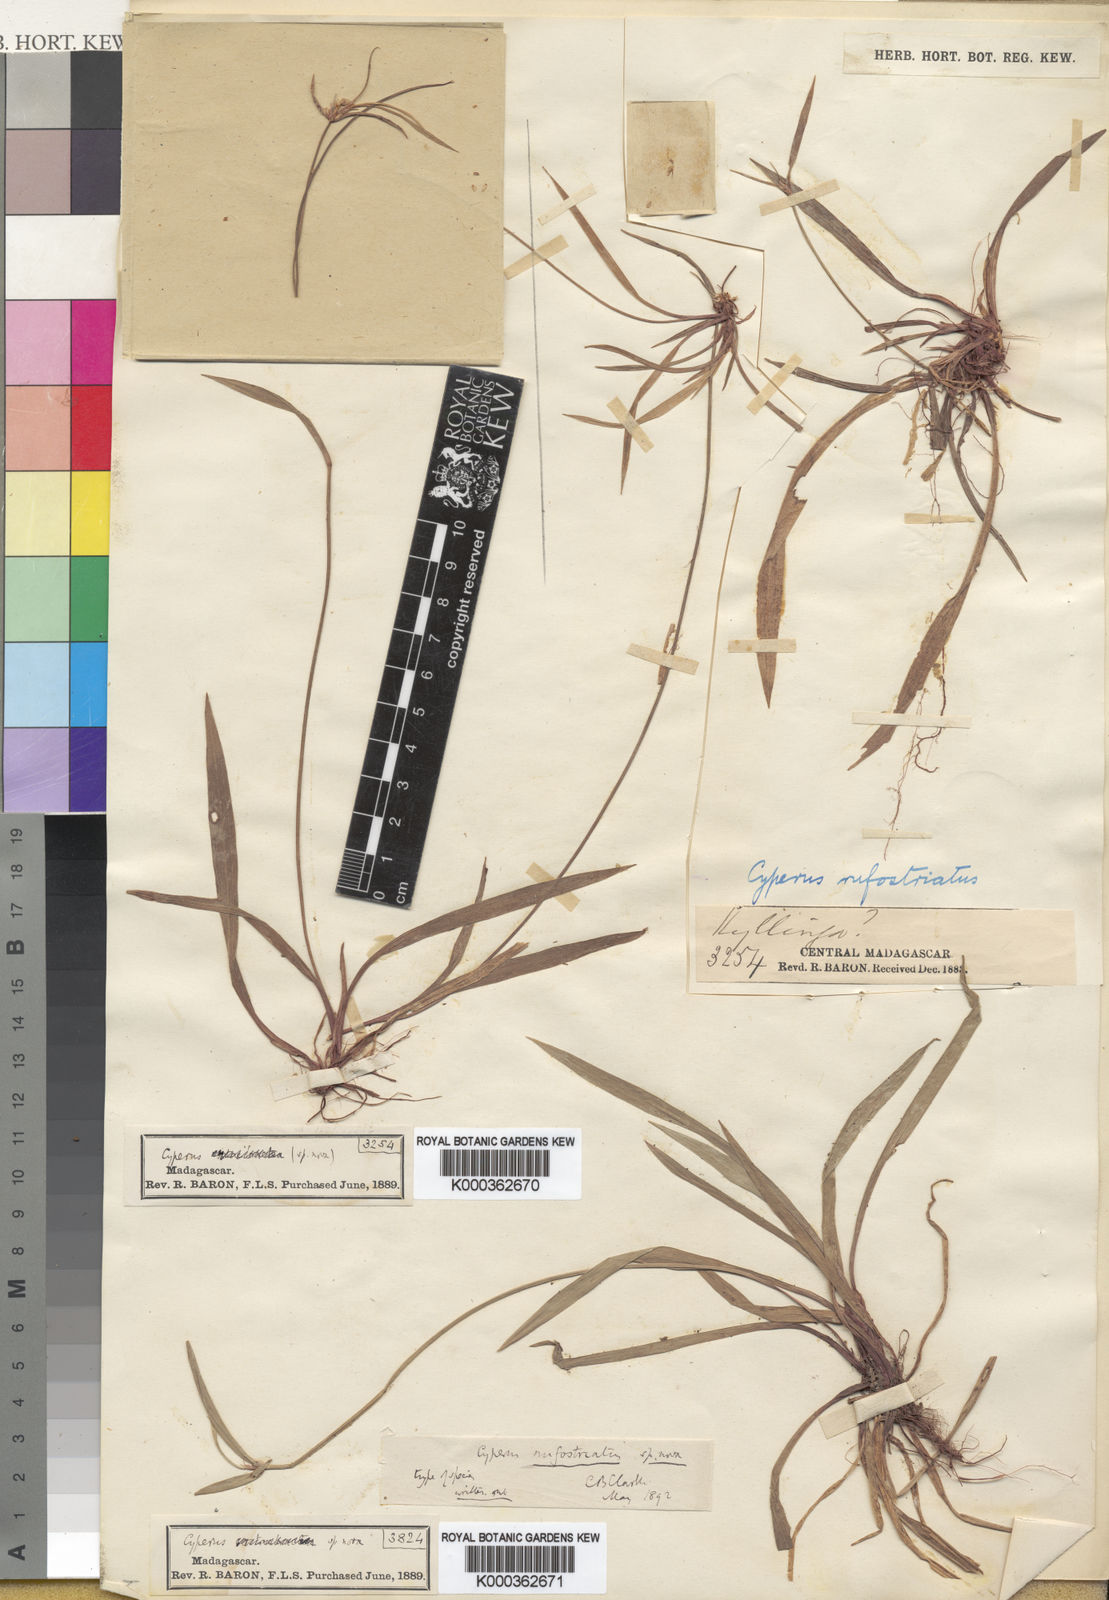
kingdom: Plantae
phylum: Tracheophyta
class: Liliopsida
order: Poales
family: Cyperaceae
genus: Cyperus
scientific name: Cyperus rufostriatus
